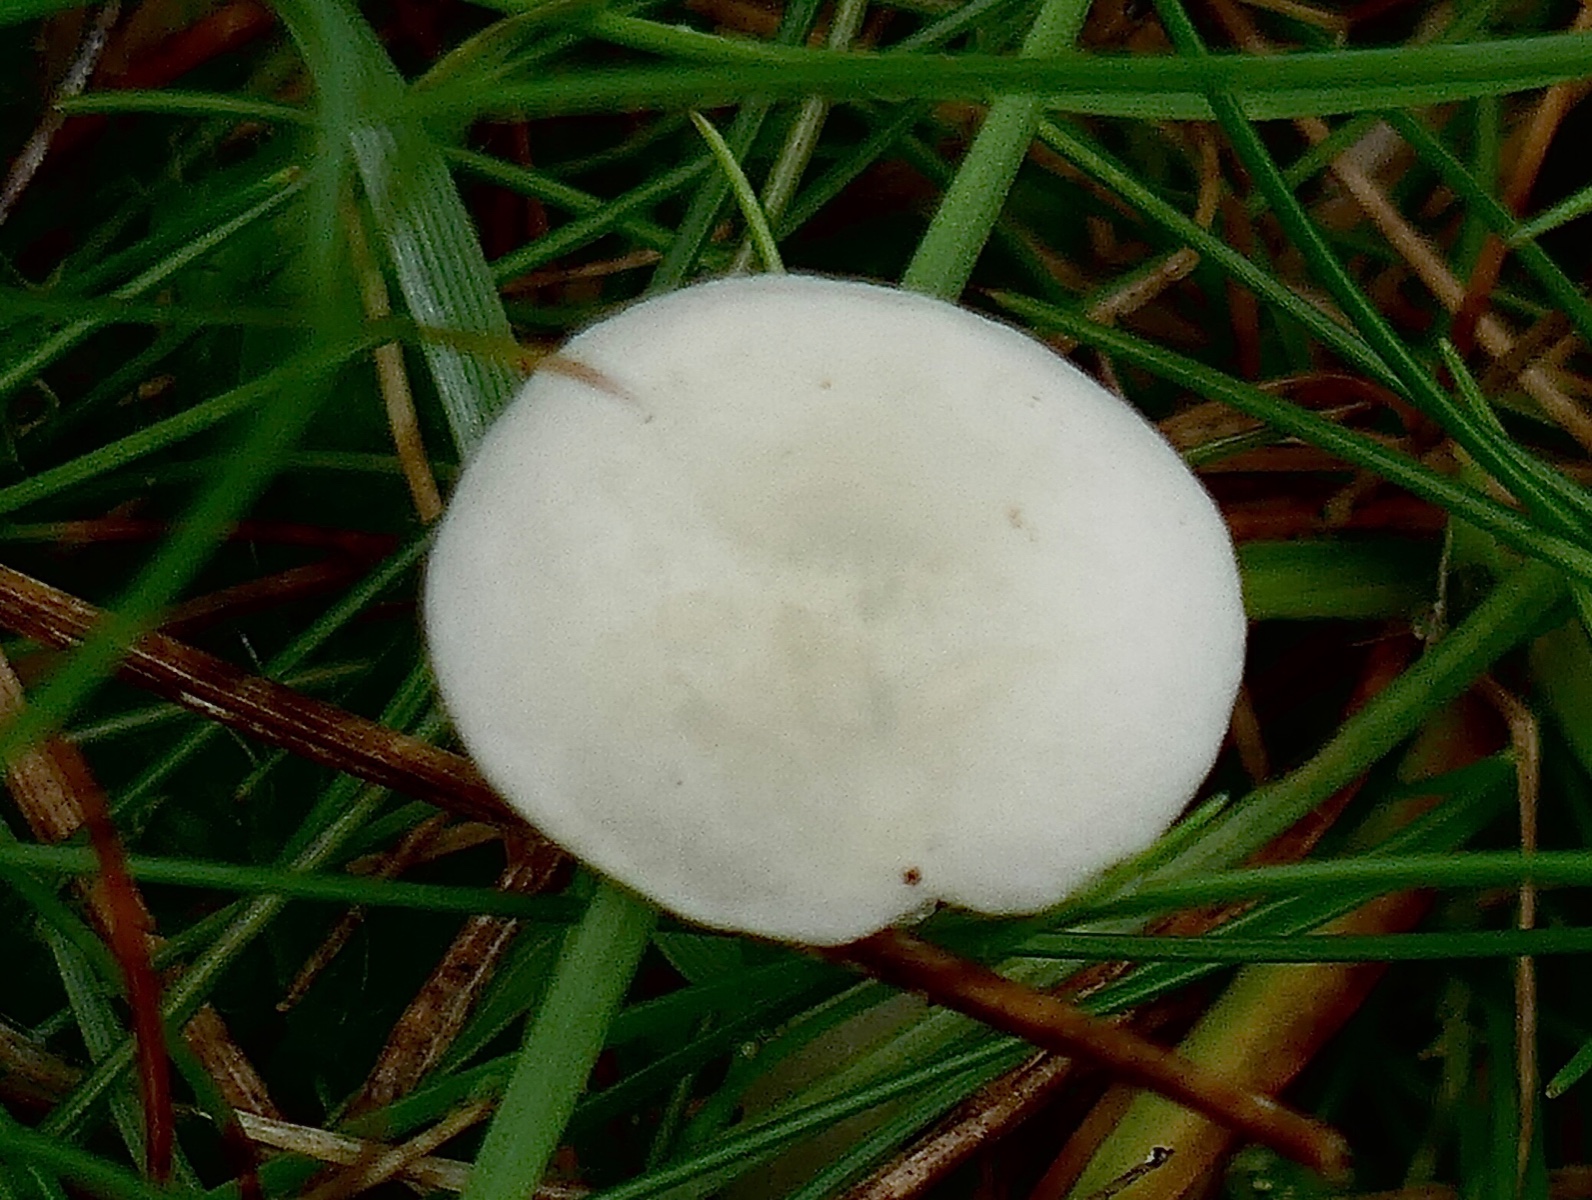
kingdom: Fungi
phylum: Basidiomycota
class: Agaricomycetes
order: Agaricales
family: Entolomataceae
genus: Entoloma
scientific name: Entoloma sericellum
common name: silkehvid rødblad
